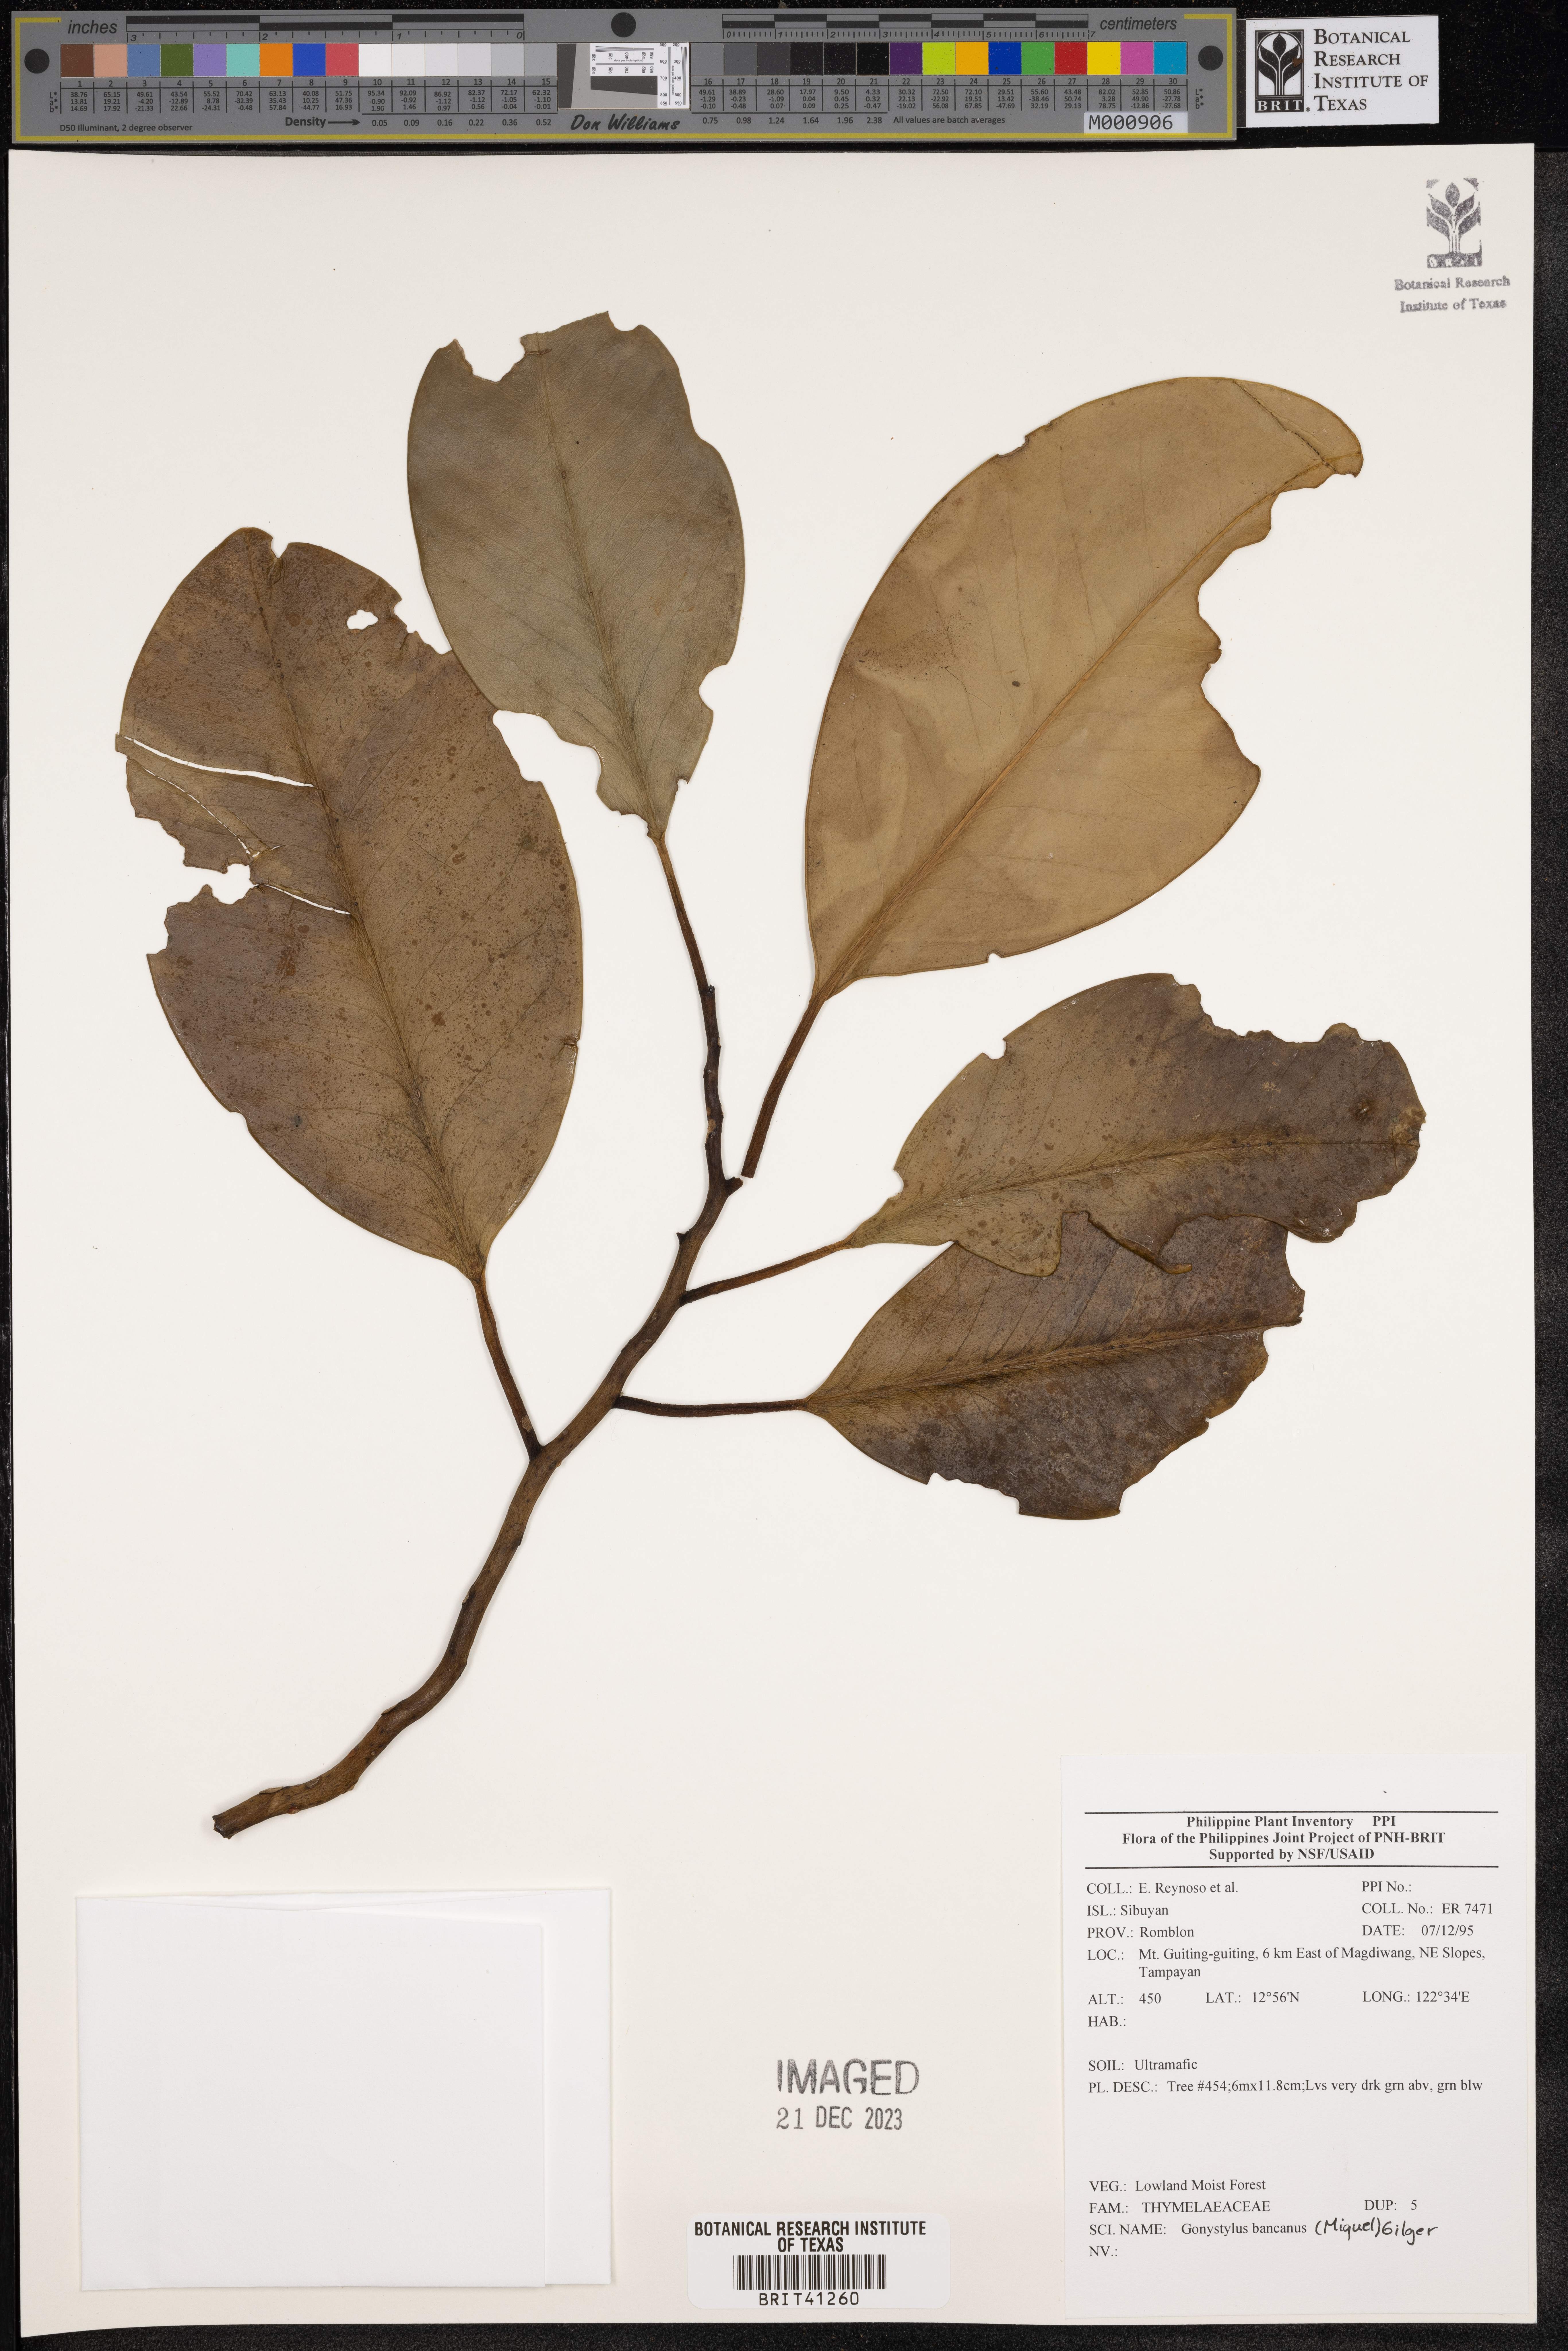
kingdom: Plantae
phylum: Tracheophyta
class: Magnoliopsida
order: Malvales
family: Thymelaeaceae
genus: Gonystylus
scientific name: Gonystylus bancanus
